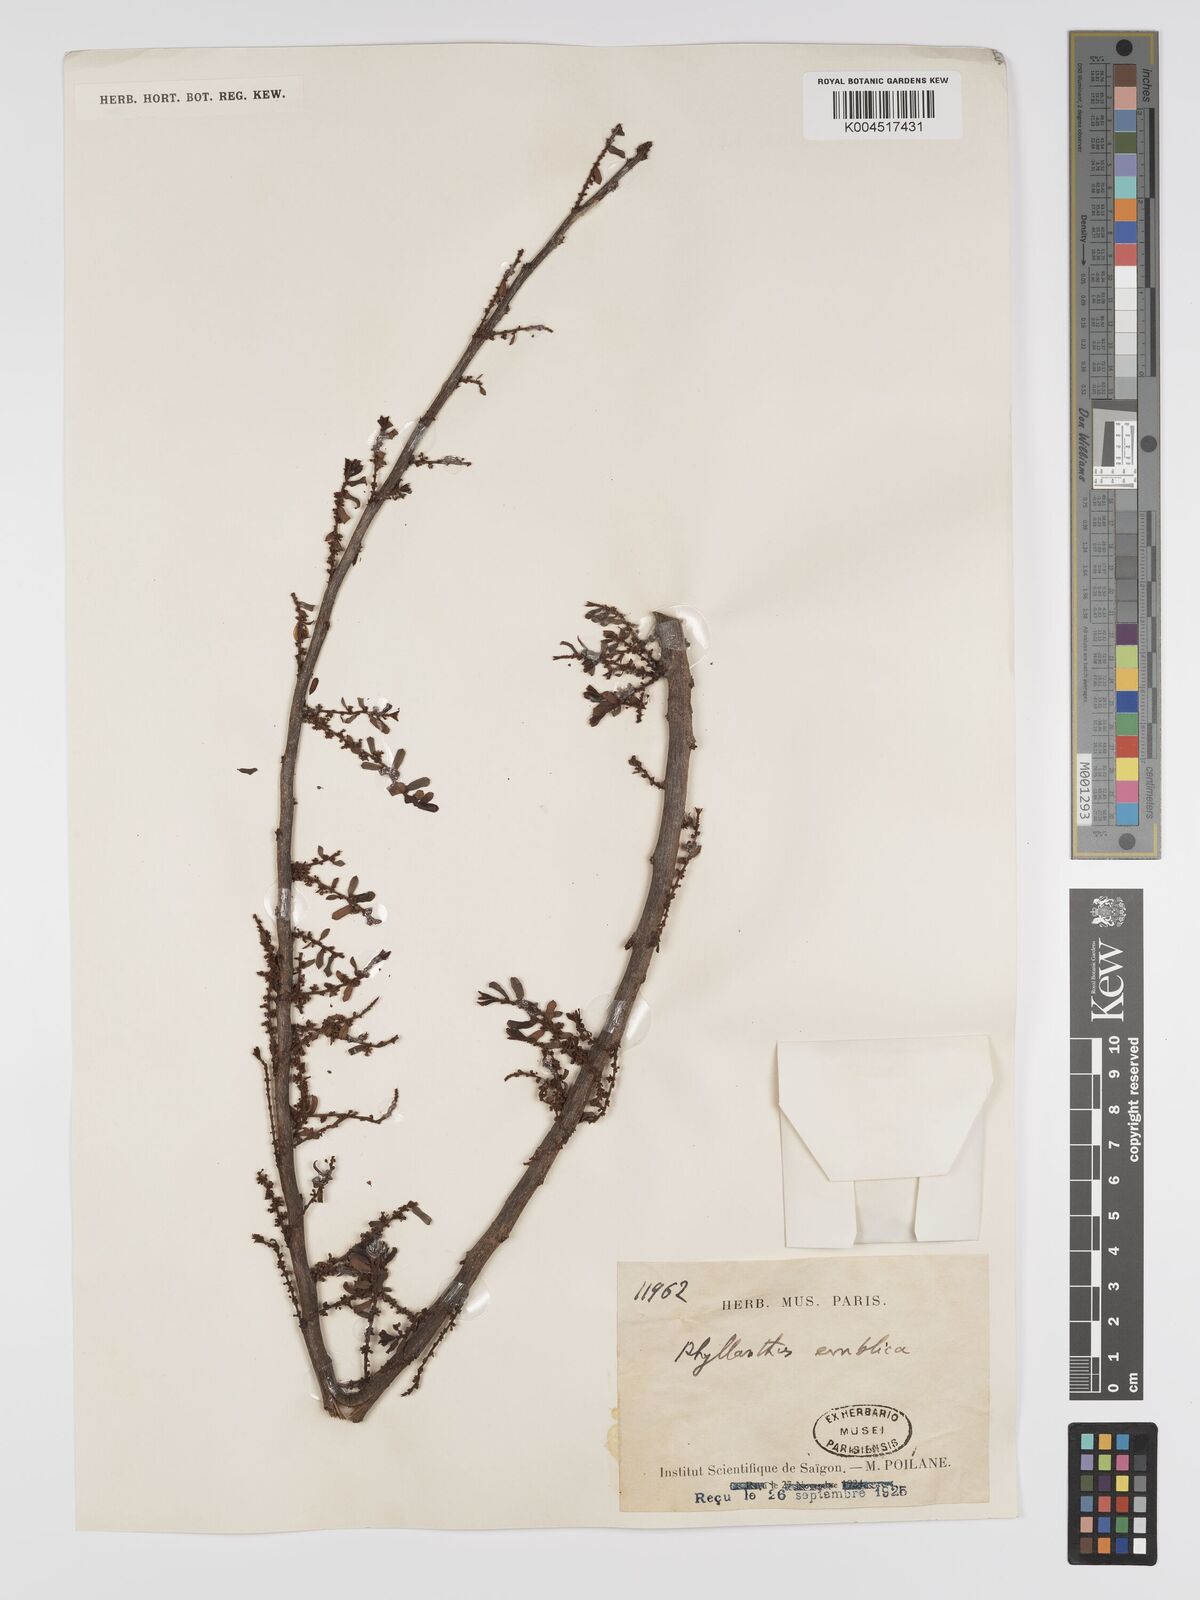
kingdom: Plantae
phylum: Tracheophyta
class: Magnoliopsida
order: Malpighiales
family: Phyllanthaceae
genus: Phyllanthus
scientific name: Phyllanthus emblica
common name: Indian gooseberry
